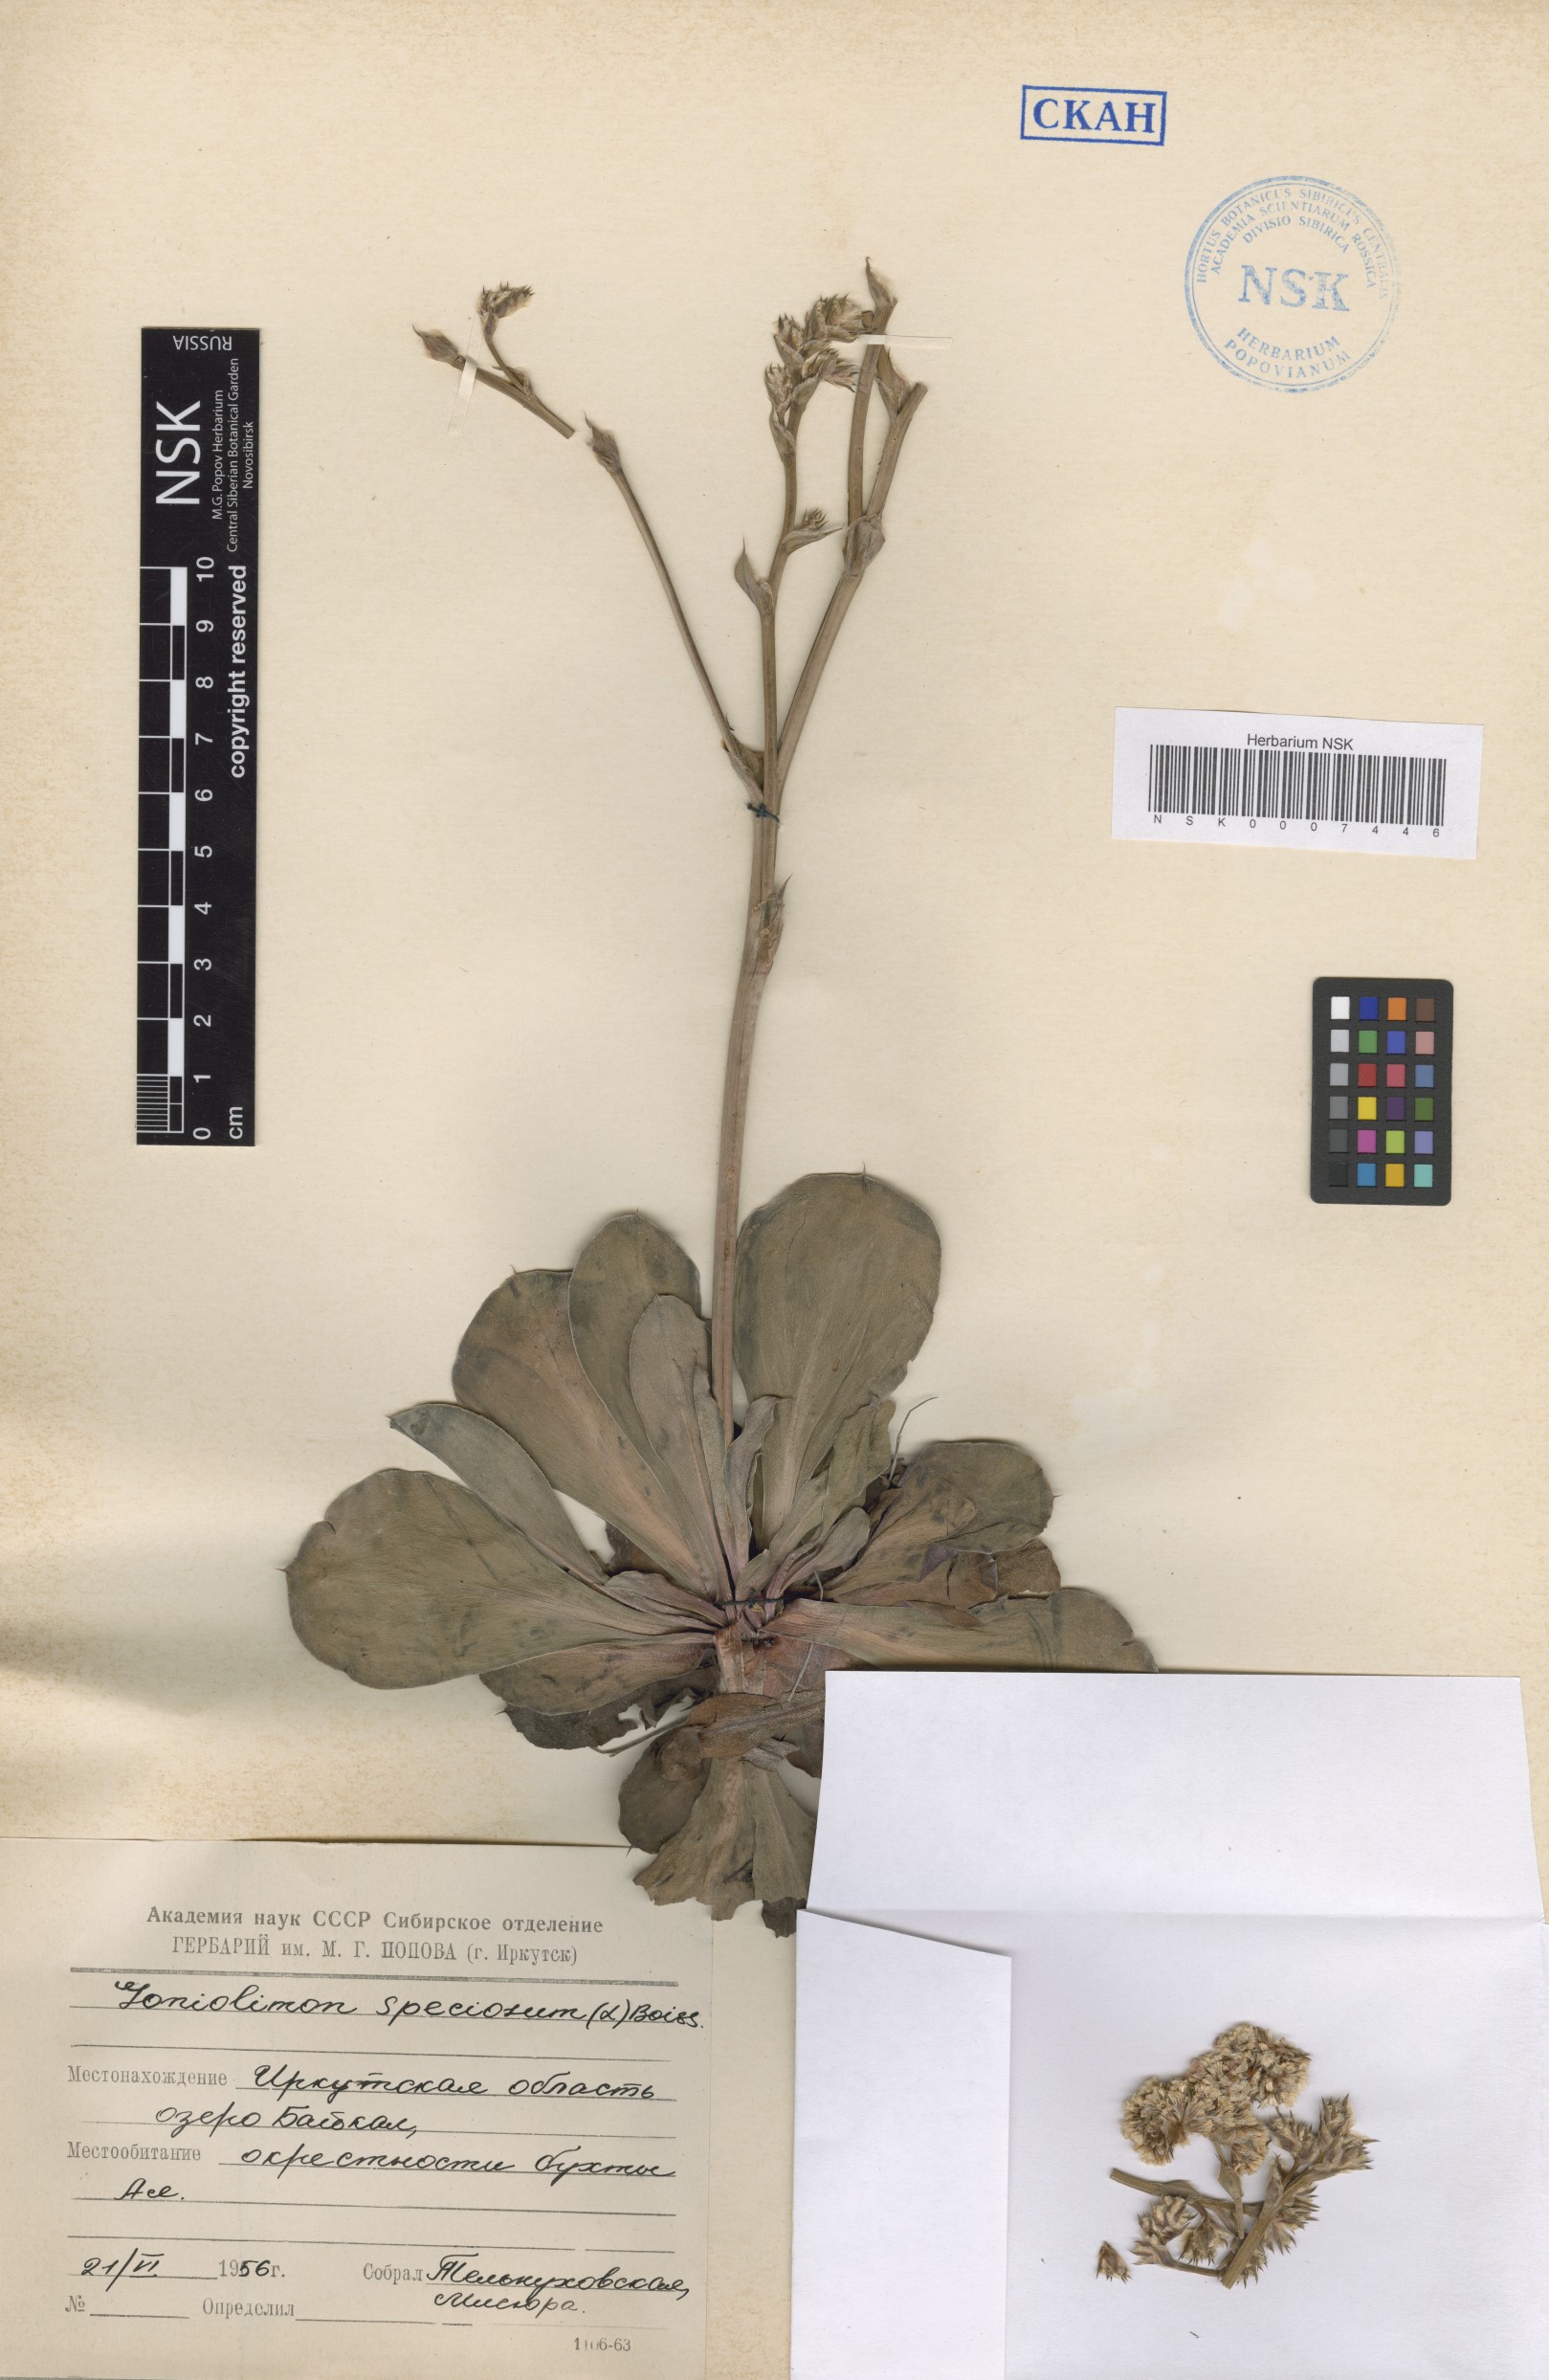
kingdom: Plantae
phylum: Tracheophyta
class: Magnoliopsida
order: Caryophyllales
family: Plumbaginaceae
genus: Goniolimon
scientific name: Goniolimon speciosum
